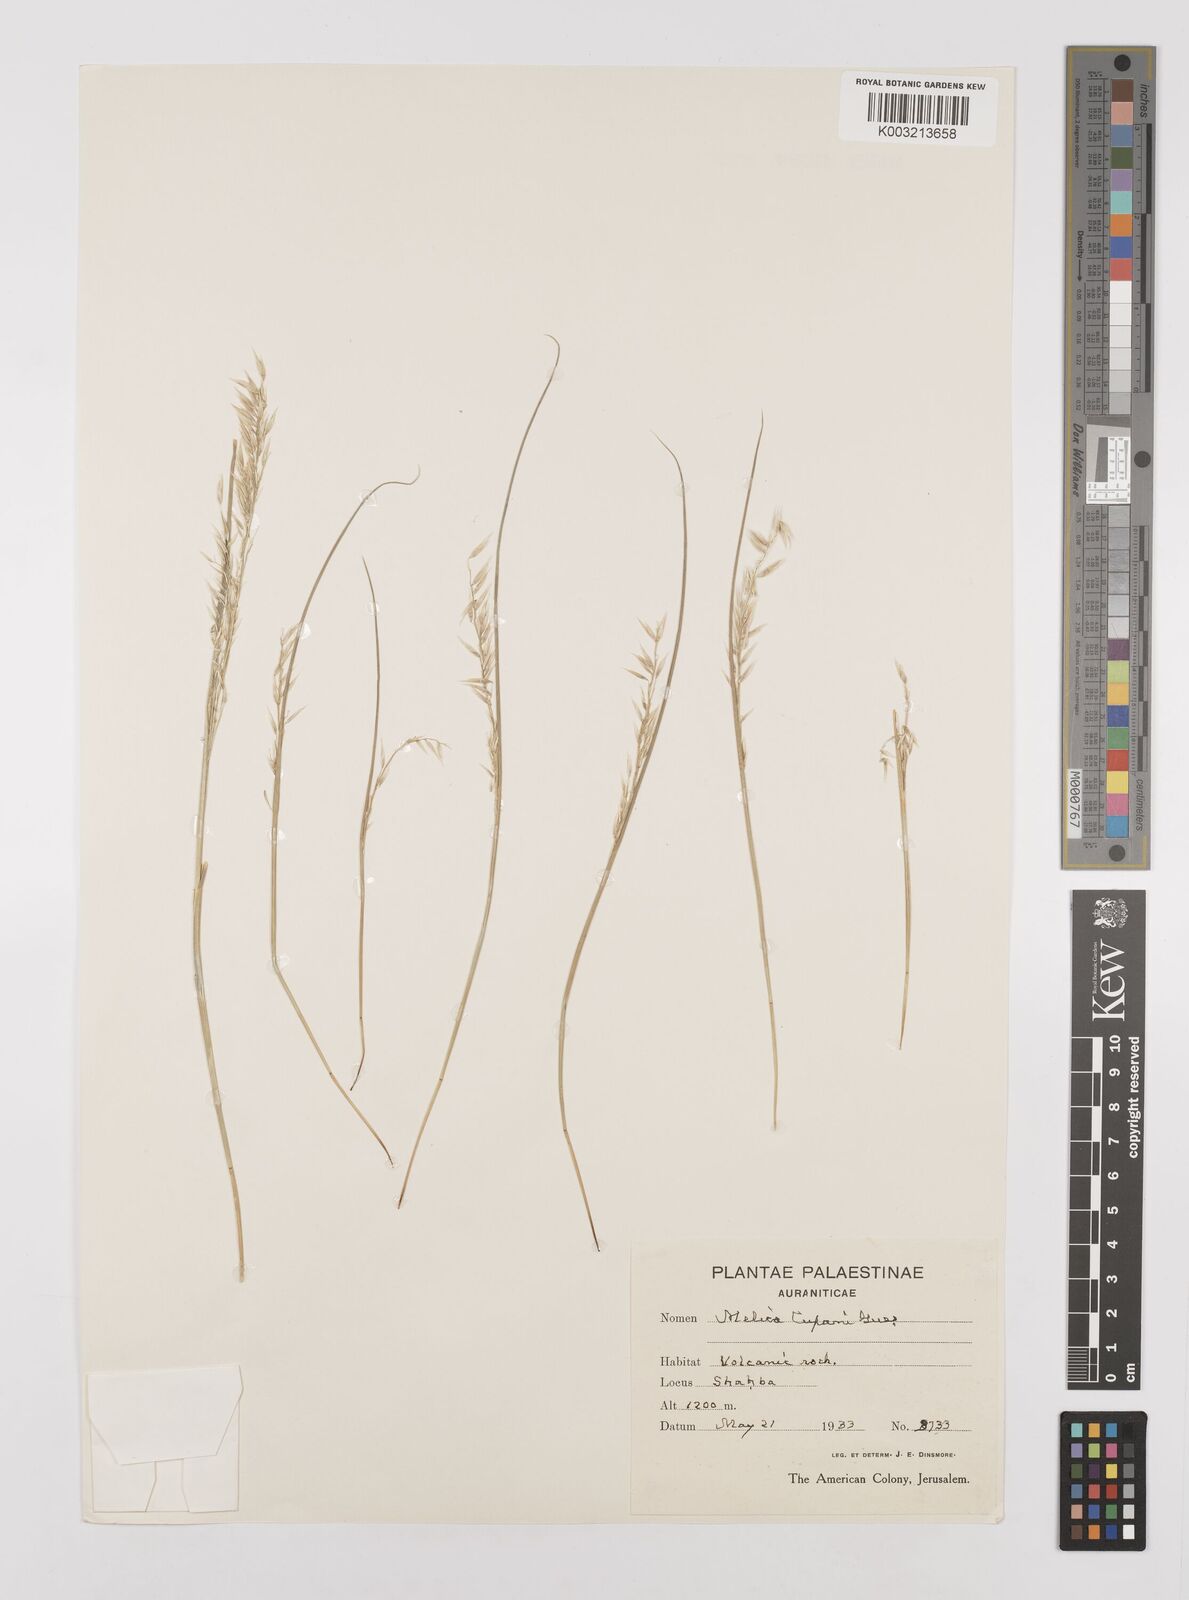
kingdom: Plantae
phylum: Tracheophyta
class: Liliopsida
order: Poales
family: Poaceae
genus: Melica
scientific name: Melica
